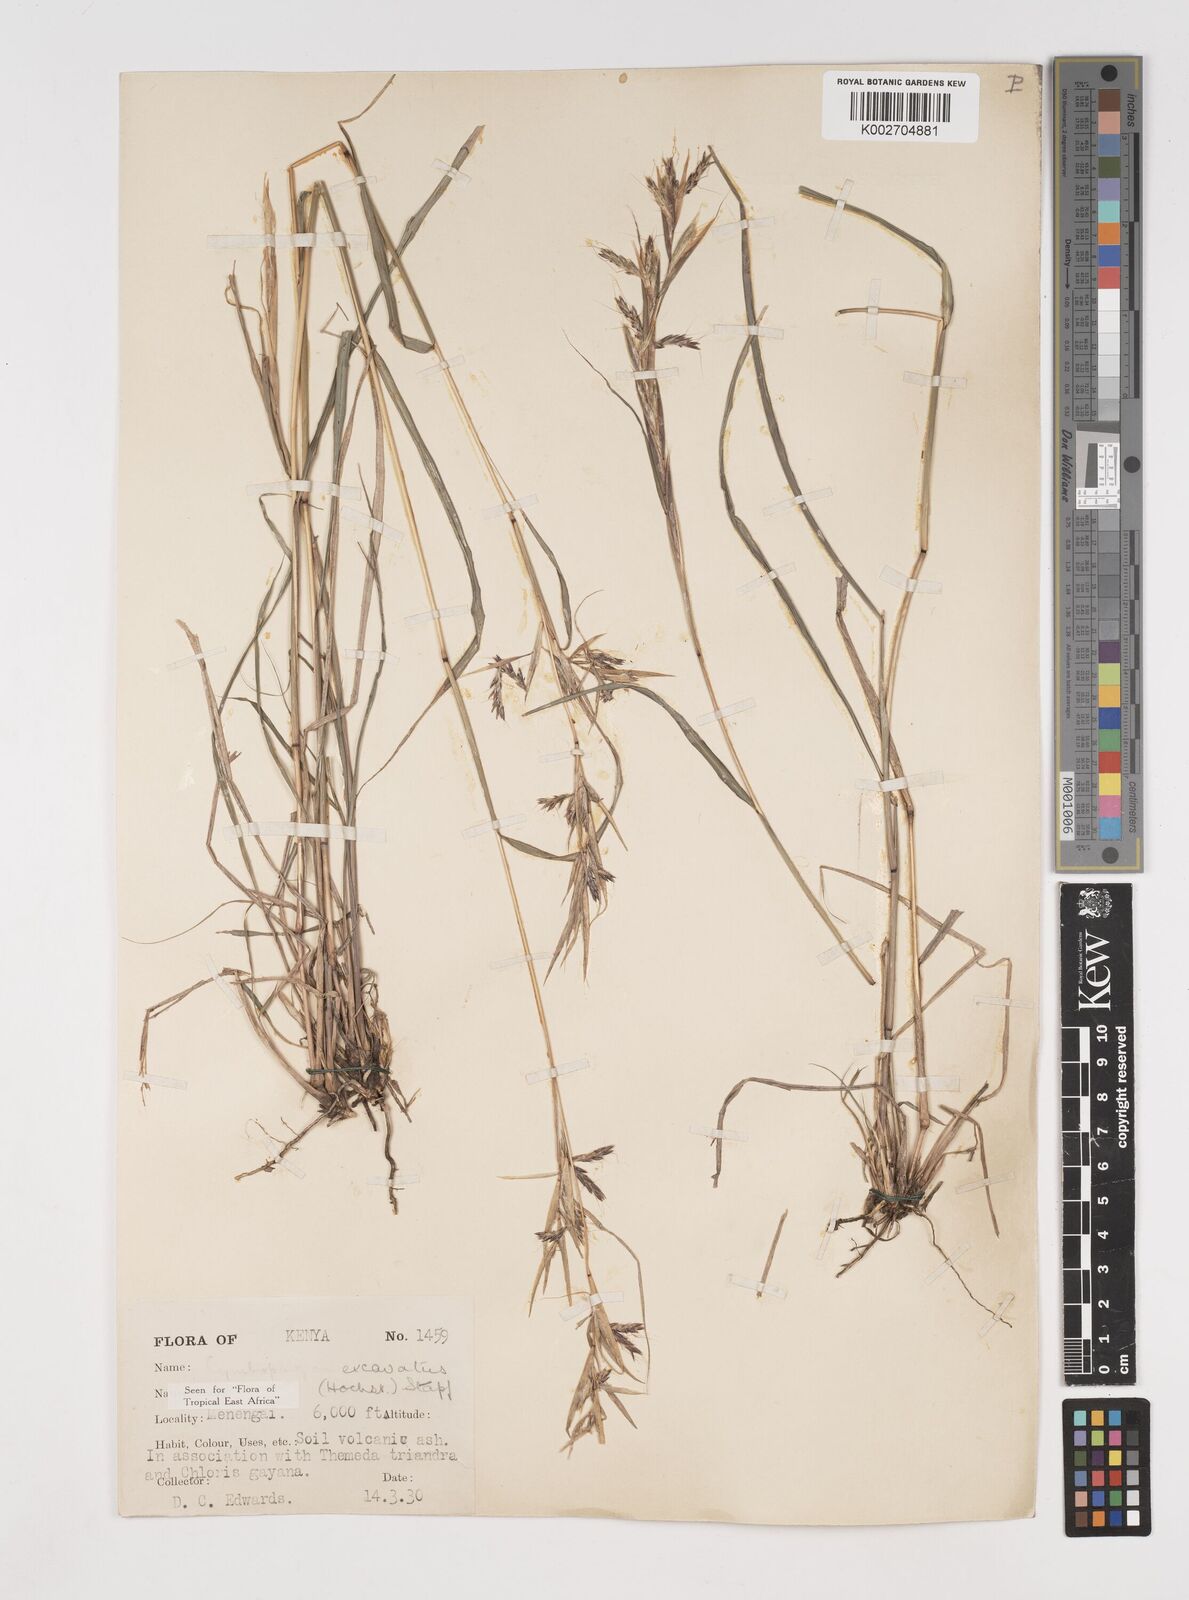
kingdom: Plantae
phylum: Tracheophyta
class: Liliopsida
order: Poales
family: Poaceae
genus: Cymbopogon
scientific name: Cymbopogon caesius
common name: Kachi grass
